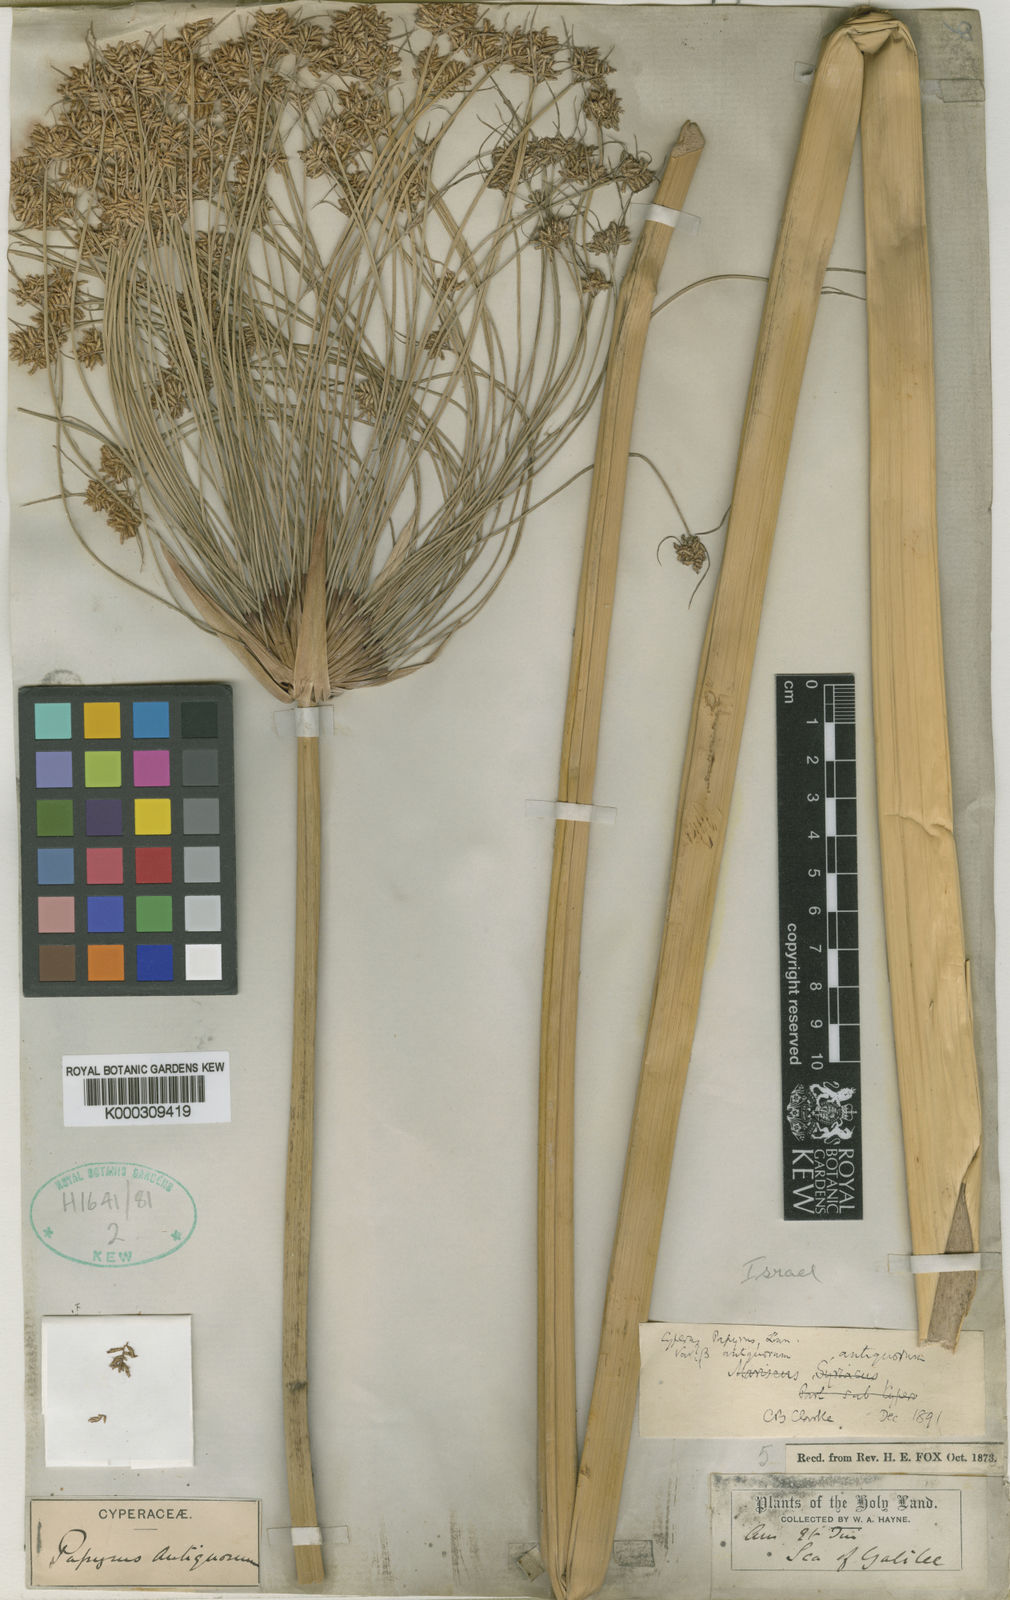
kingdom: Plantae
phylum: Tracheophyta
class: Liliopsida
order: Poales
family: Cyperaceae
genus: Cyperus
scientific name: Cyperus papyrus
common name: Papyrus
